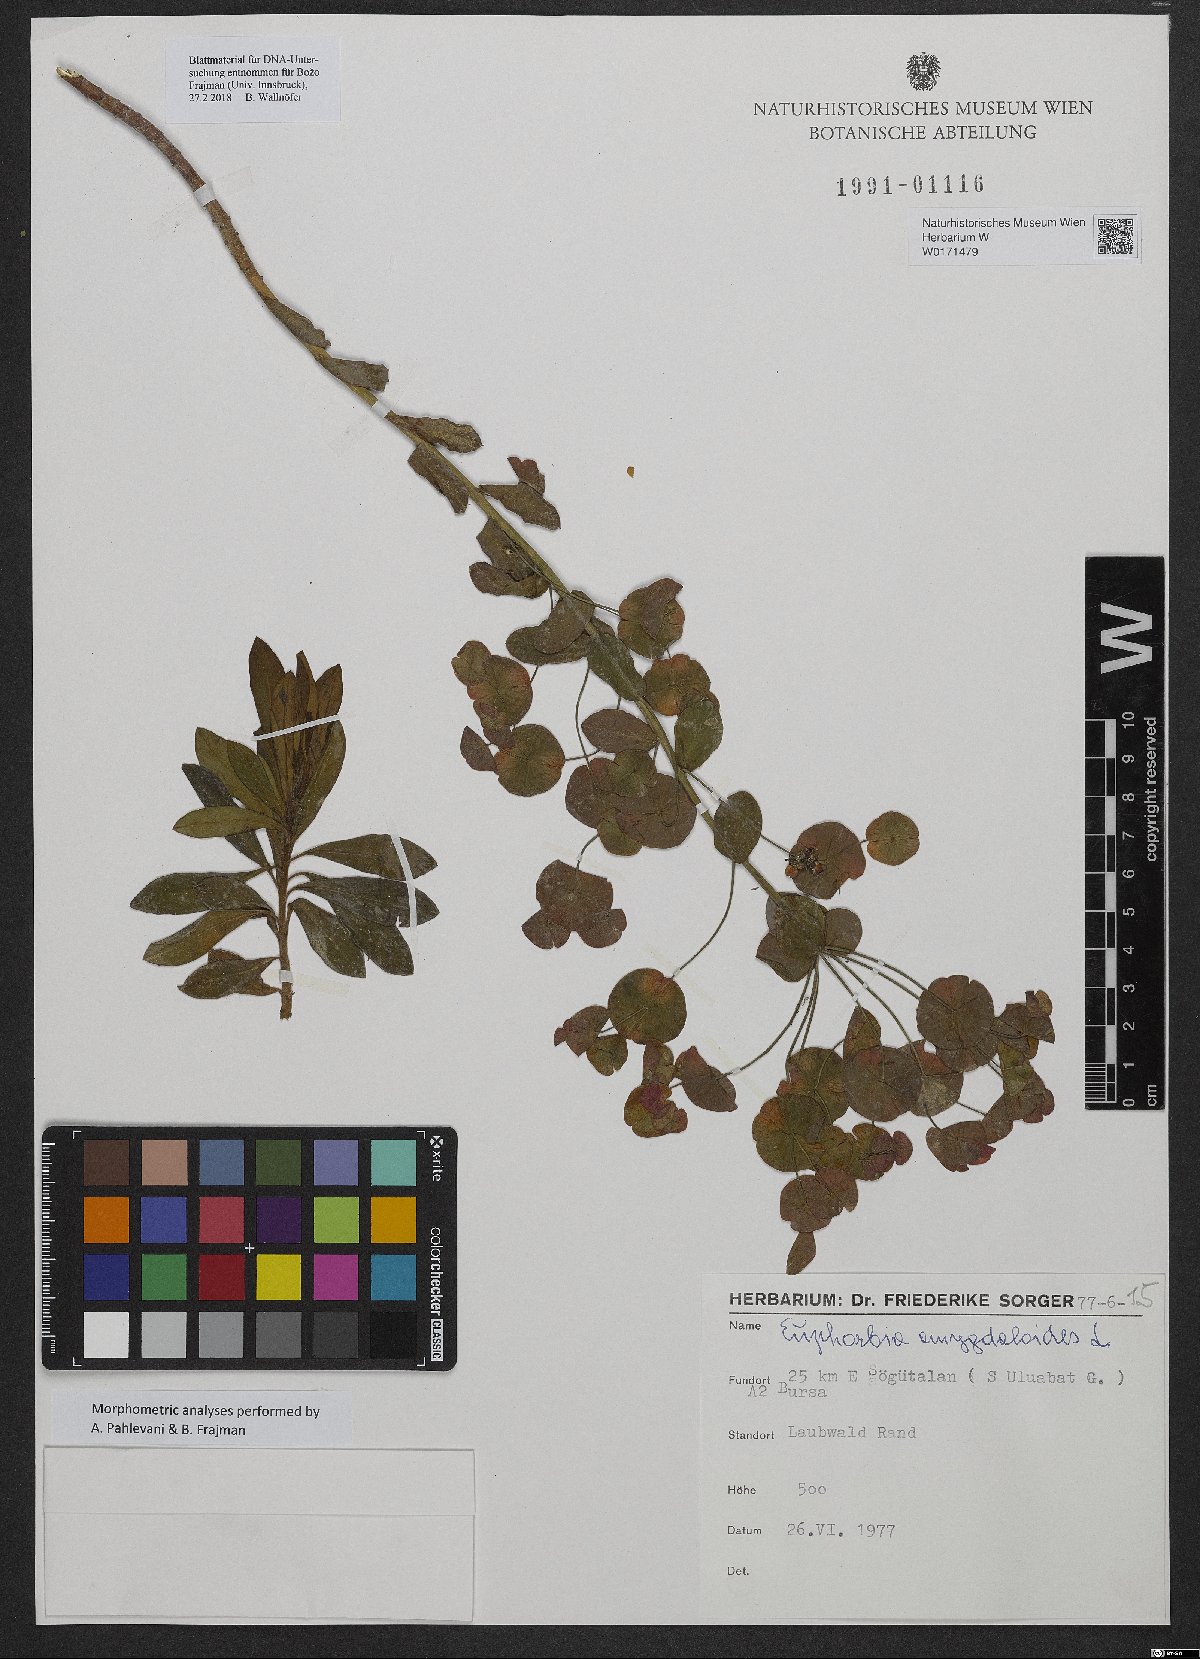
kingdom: Plantae
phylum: Tracheophyta
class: Magnoliopsida
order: Malpighiales
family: Euphorbiaceae
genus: Euphorbia
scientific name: Euphorbia amygdaloides
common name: Wood spurge
